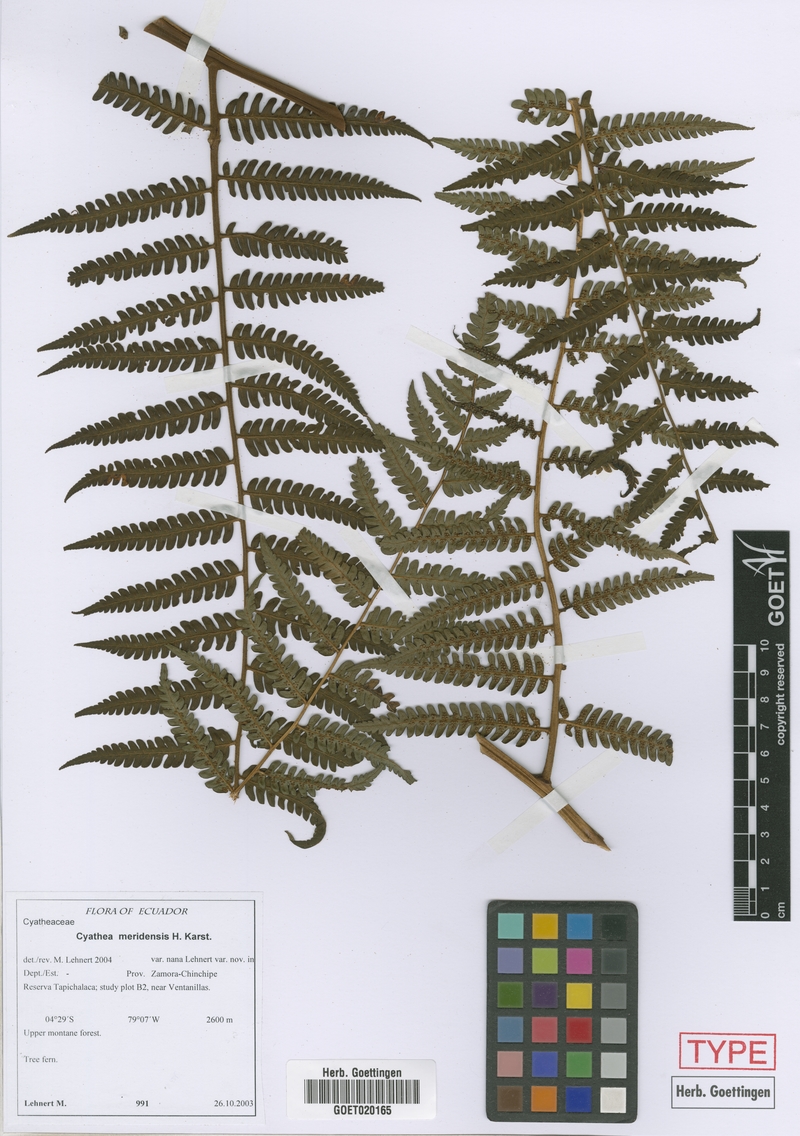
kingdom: Plantae
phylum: Tracheophyta
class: Polypodiopsida
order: Cyatheales
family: Cyatheaceae
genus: Cyathea
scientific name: Cyathea meridensis
